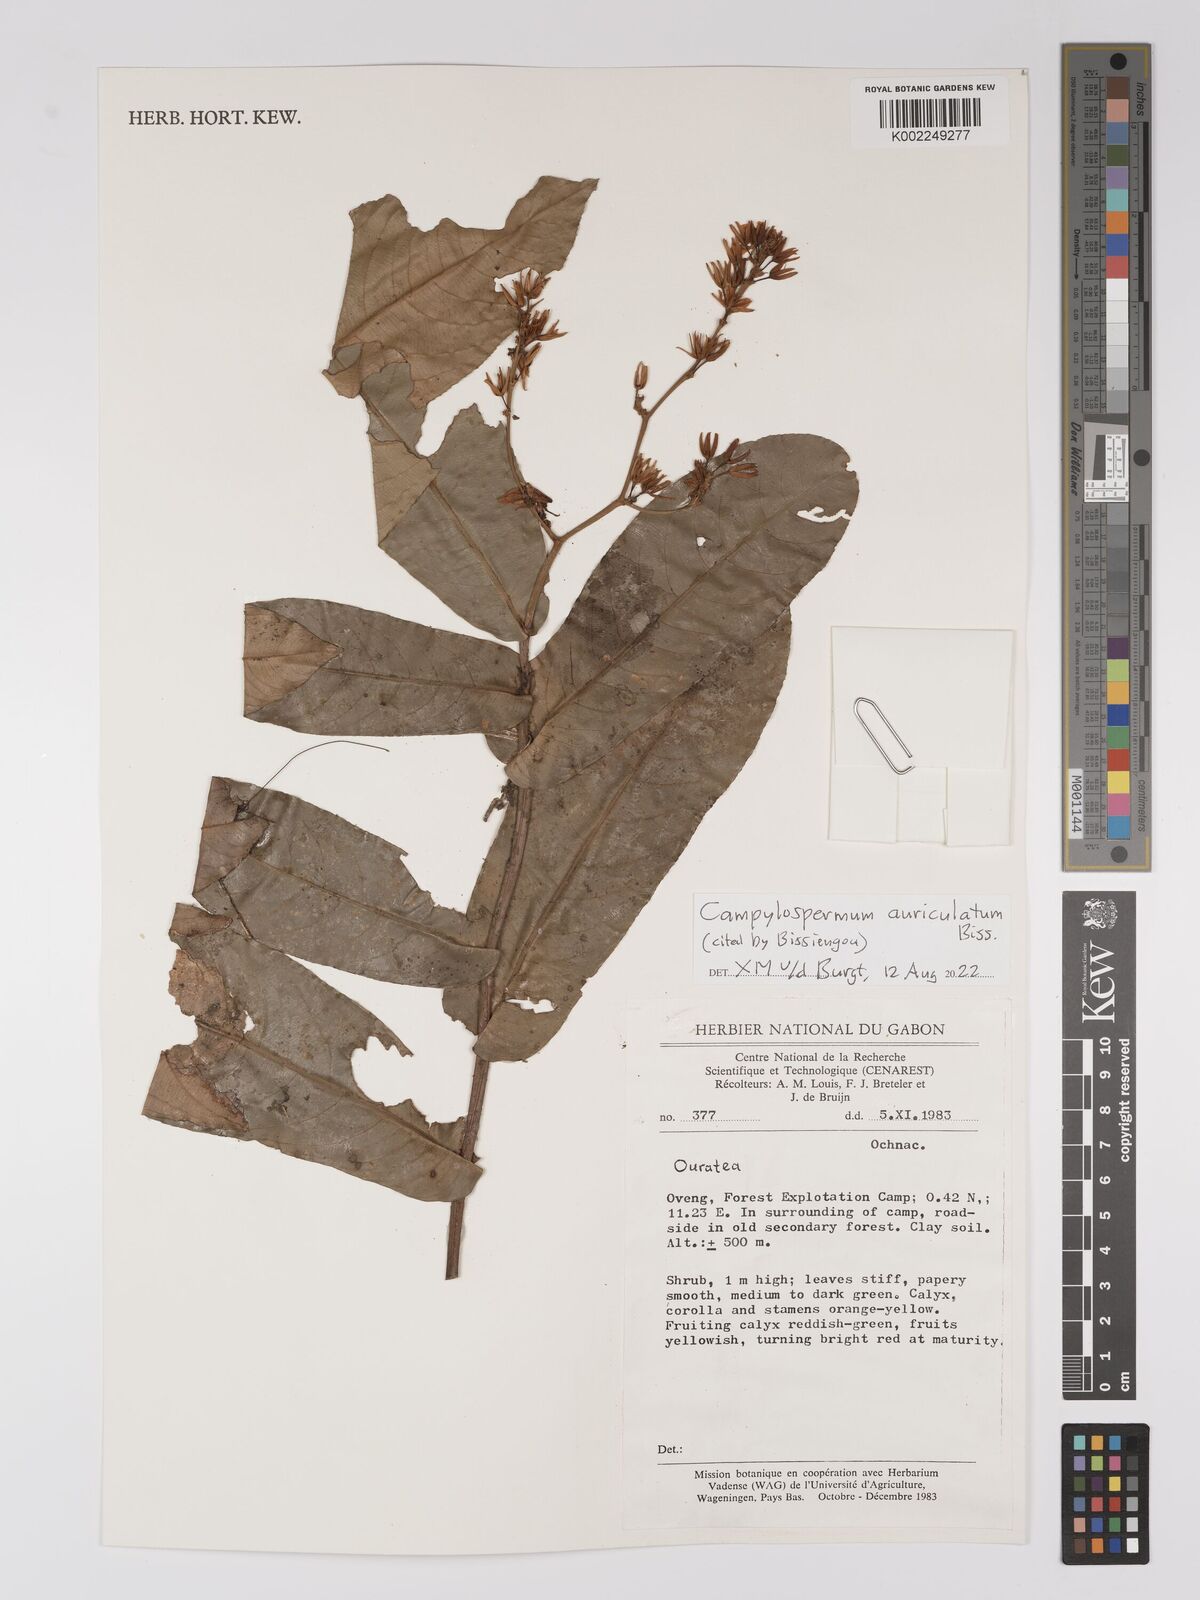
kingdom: Plantae
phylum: Tracheophyta
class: Magnoliopsida
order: Malpighiales
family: Ochnaceae
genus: Campylospermum
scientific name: Campylospermum auriculatum
